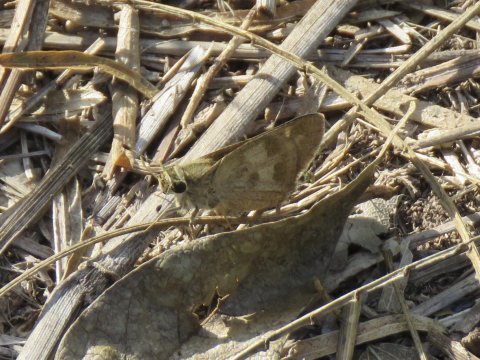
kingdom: Animalia
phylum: Arthropoda
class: Insecta
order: Lepidoptera
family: Hesperiidae
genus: Polites
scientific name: Polites vibex
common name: Whirlabout
